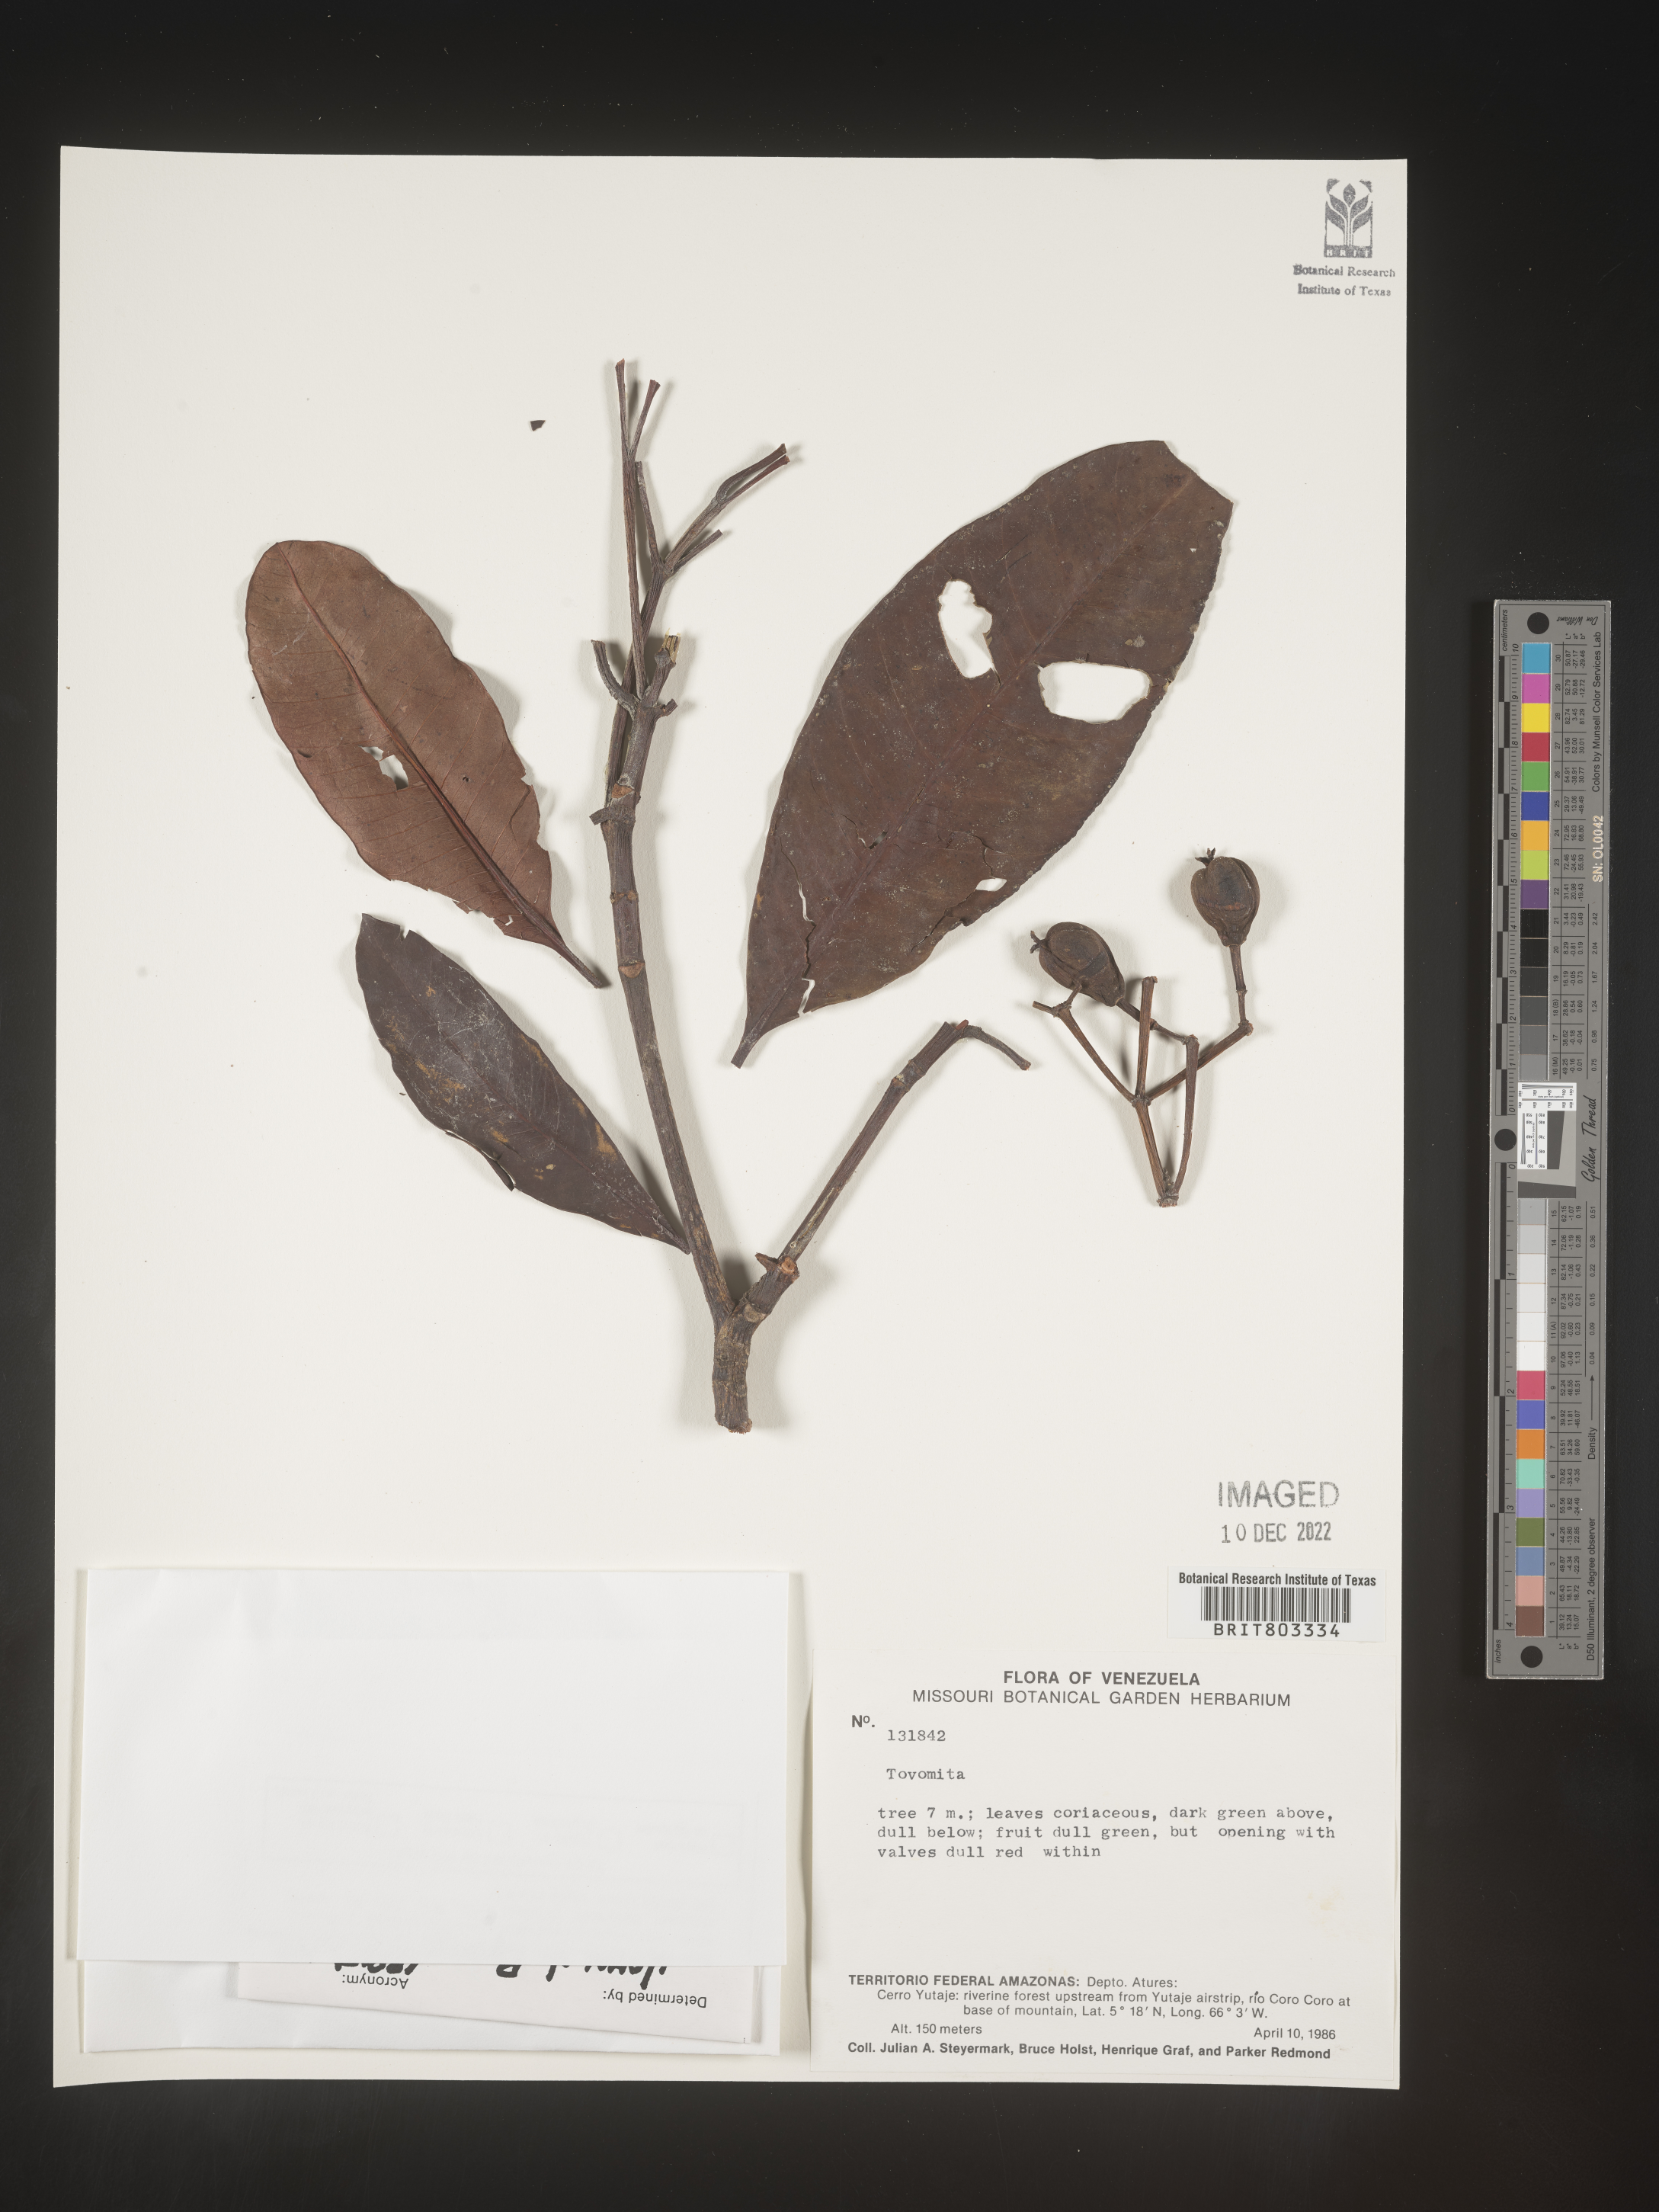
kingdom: Plantae
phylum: Tracheophyta
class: Magnoliopsida
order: Malpighiales
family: Clusiaceae
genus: Tovomita
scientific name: Tovomita
